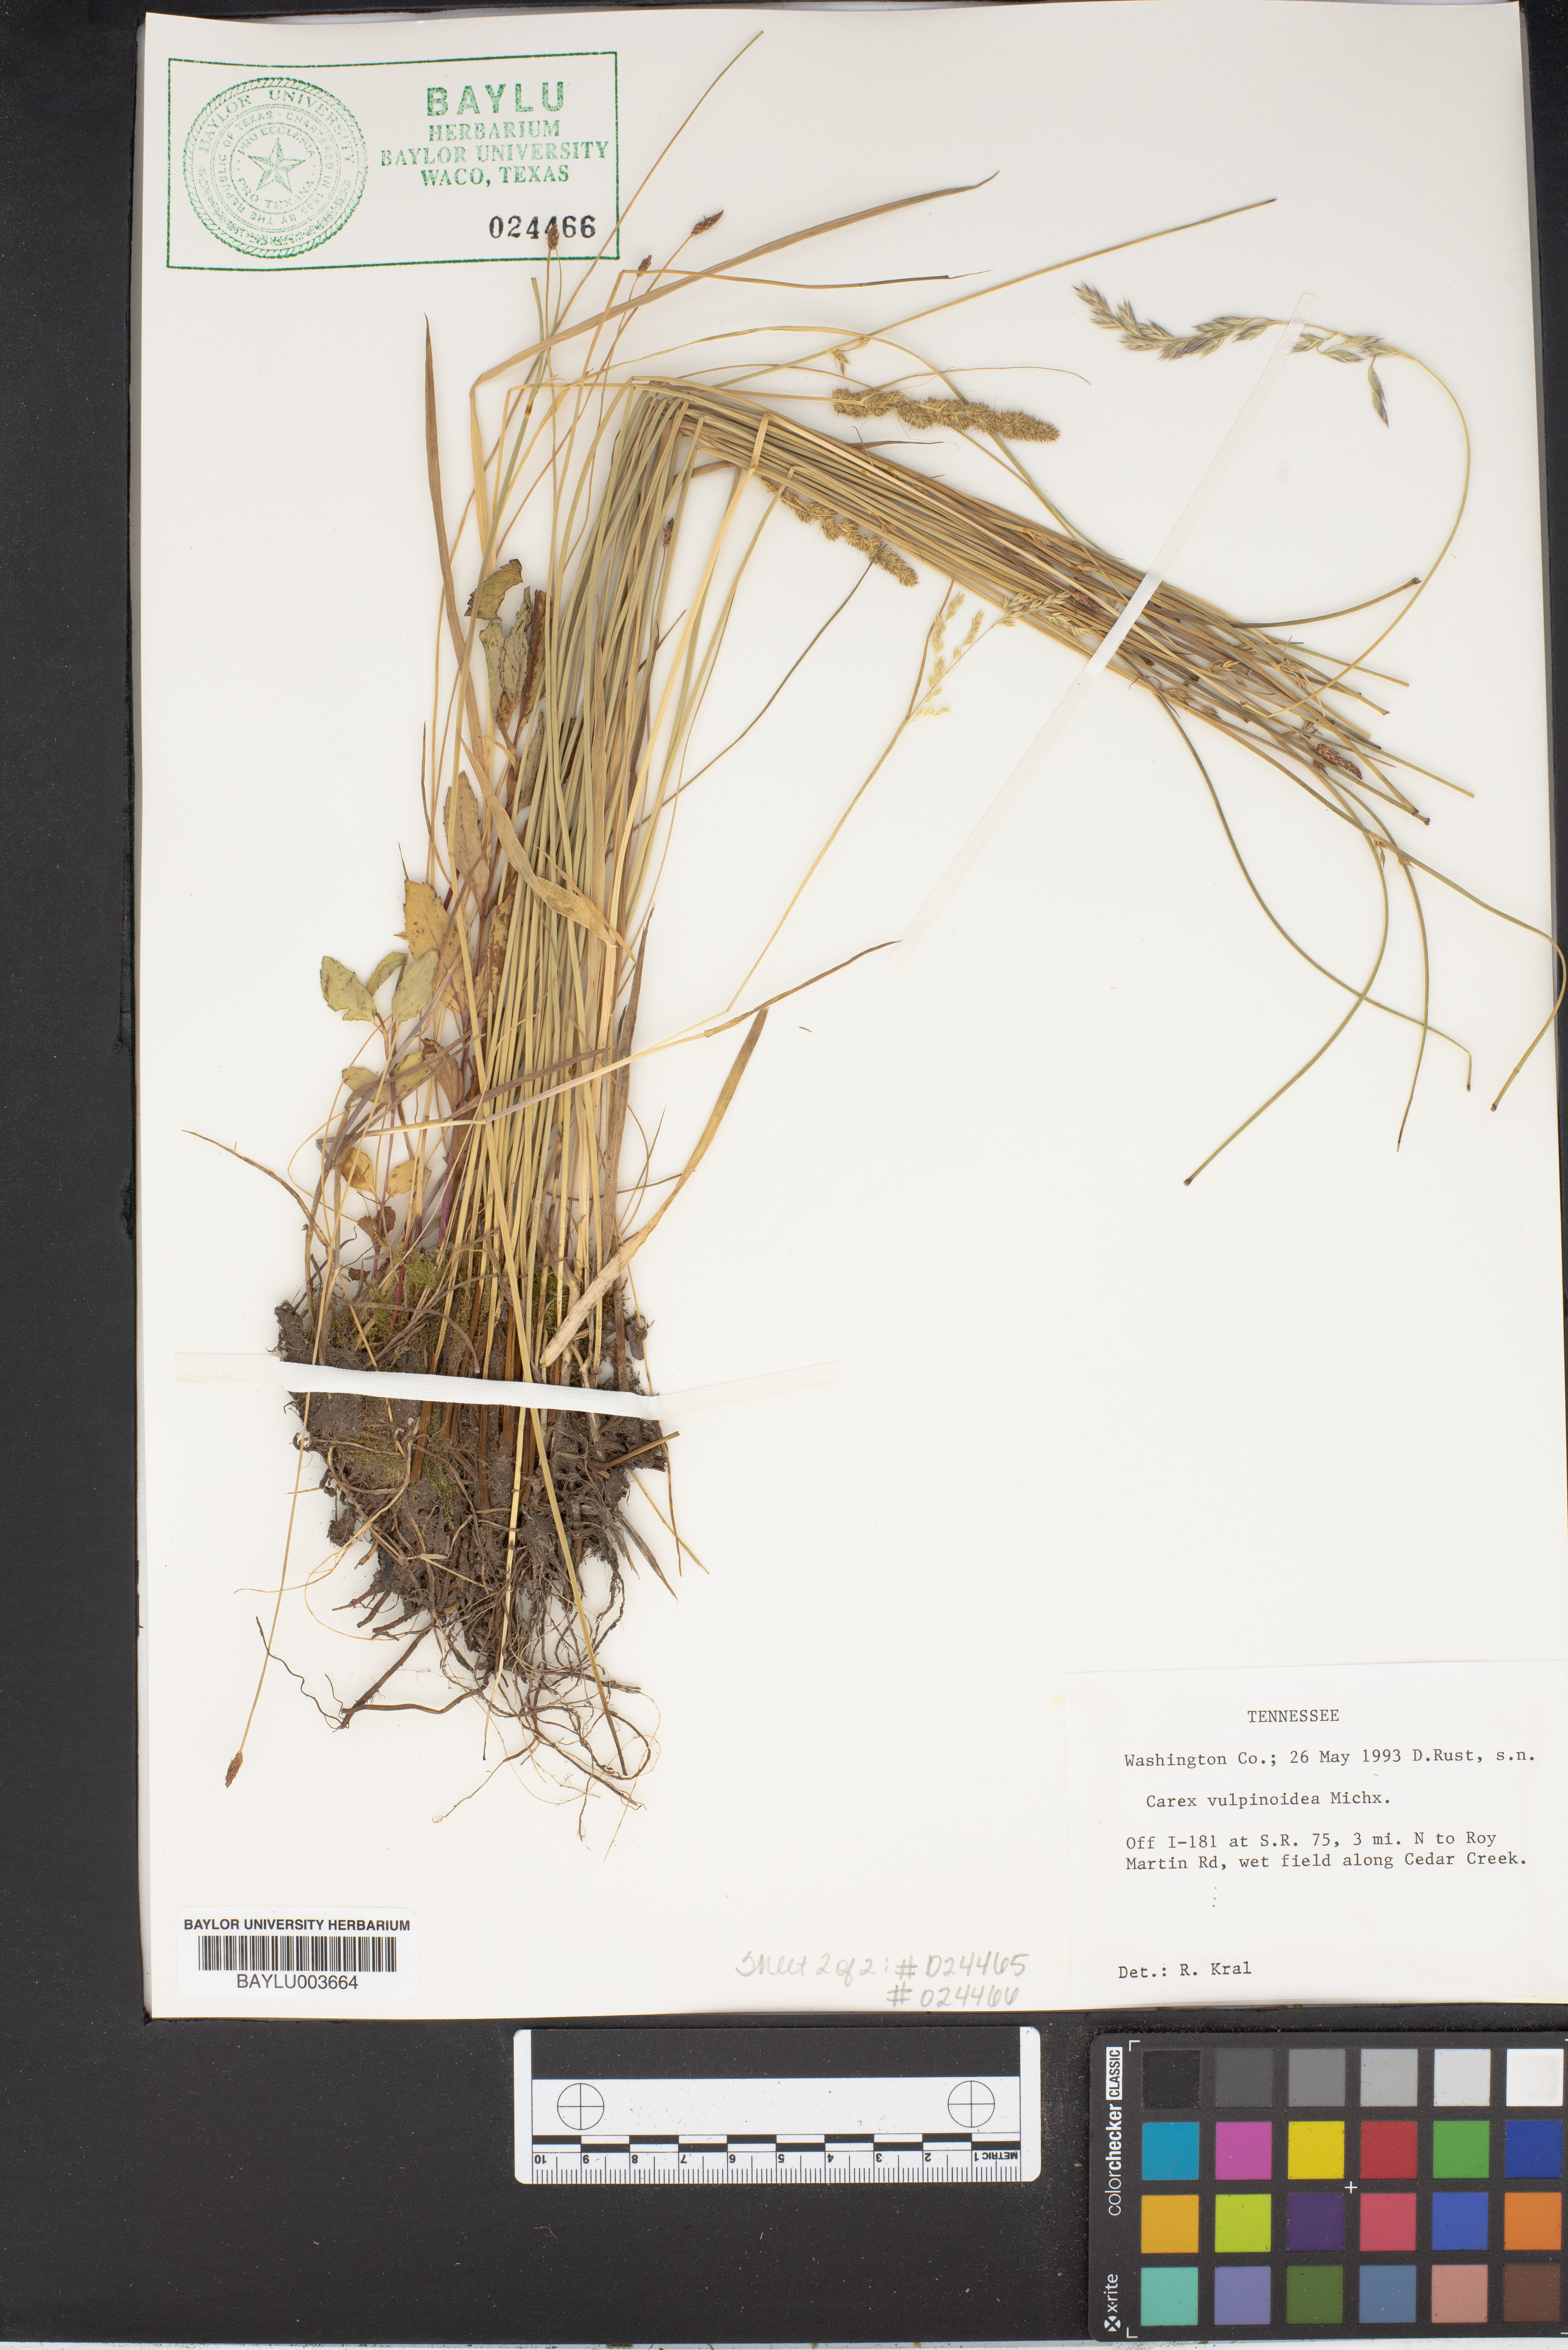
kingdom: Plantae
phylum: Tracheophyta
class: Liliopsida
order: Poales
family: Cyperaceae
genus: Carex
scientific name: Carex vulpinoidea
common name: American fox-sedge
